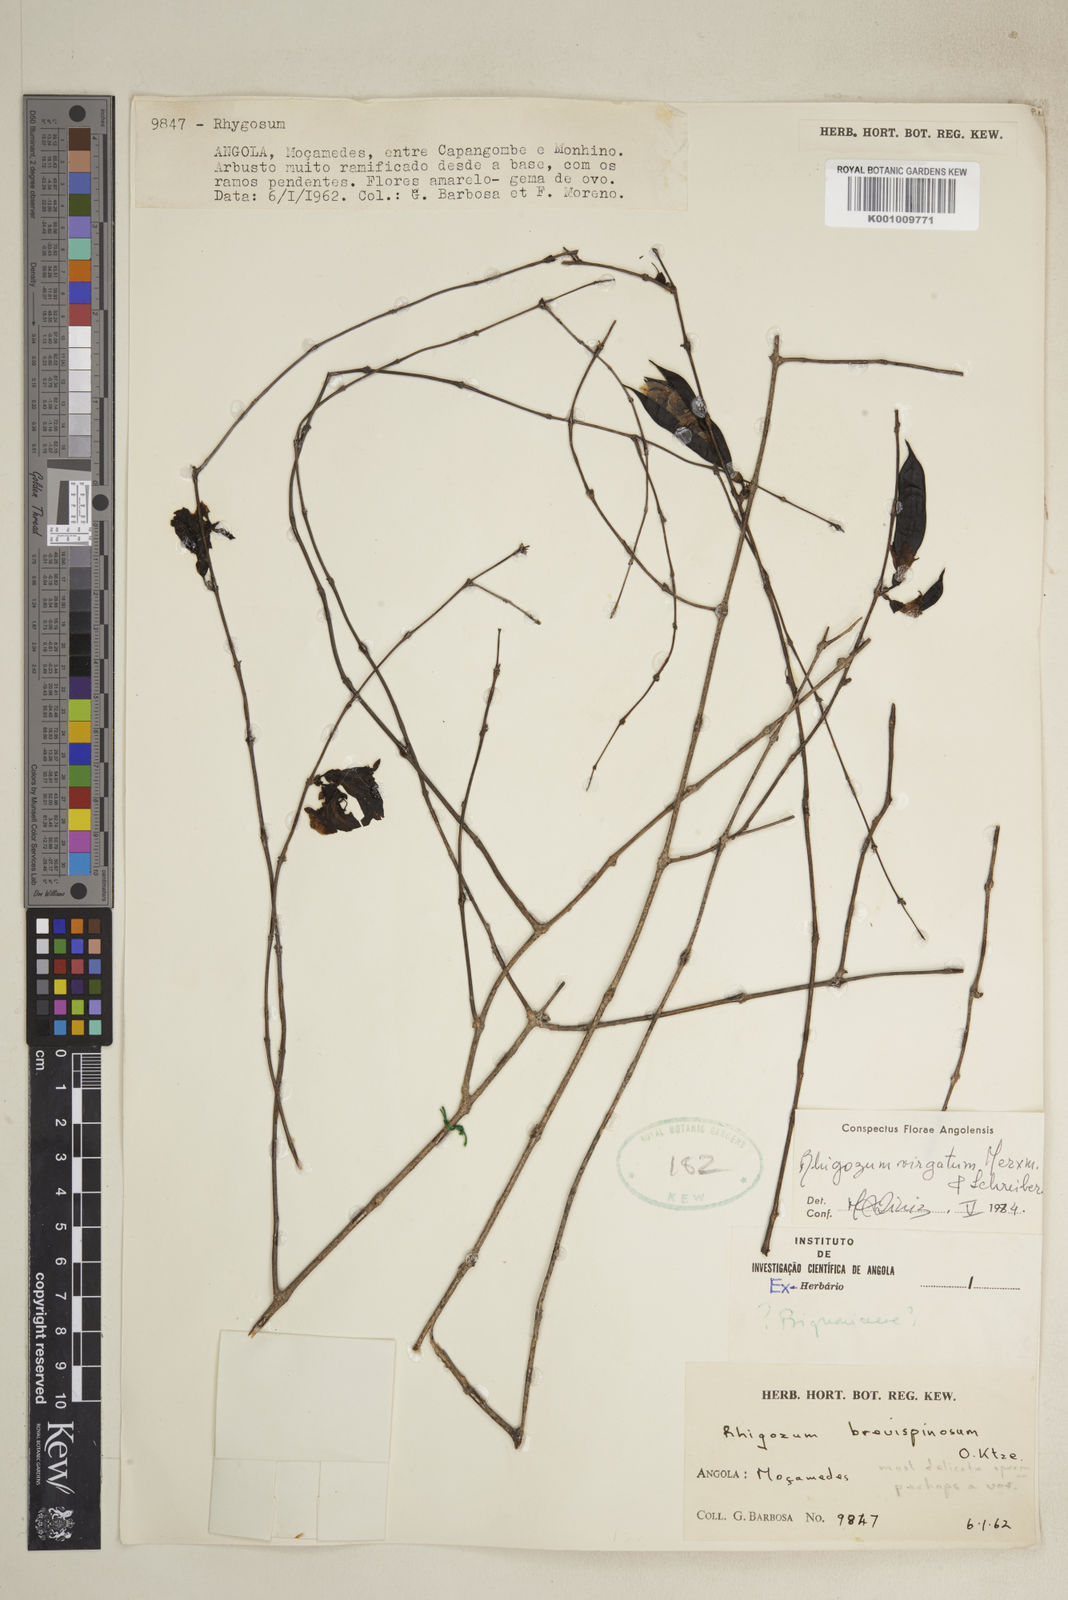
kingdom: Plantae
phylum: Tracheophyta
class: Magnoliopsida
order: Lamiales
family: Bignoniaceae
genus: Rhigozum
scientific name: Rhigozum brevispinosum
